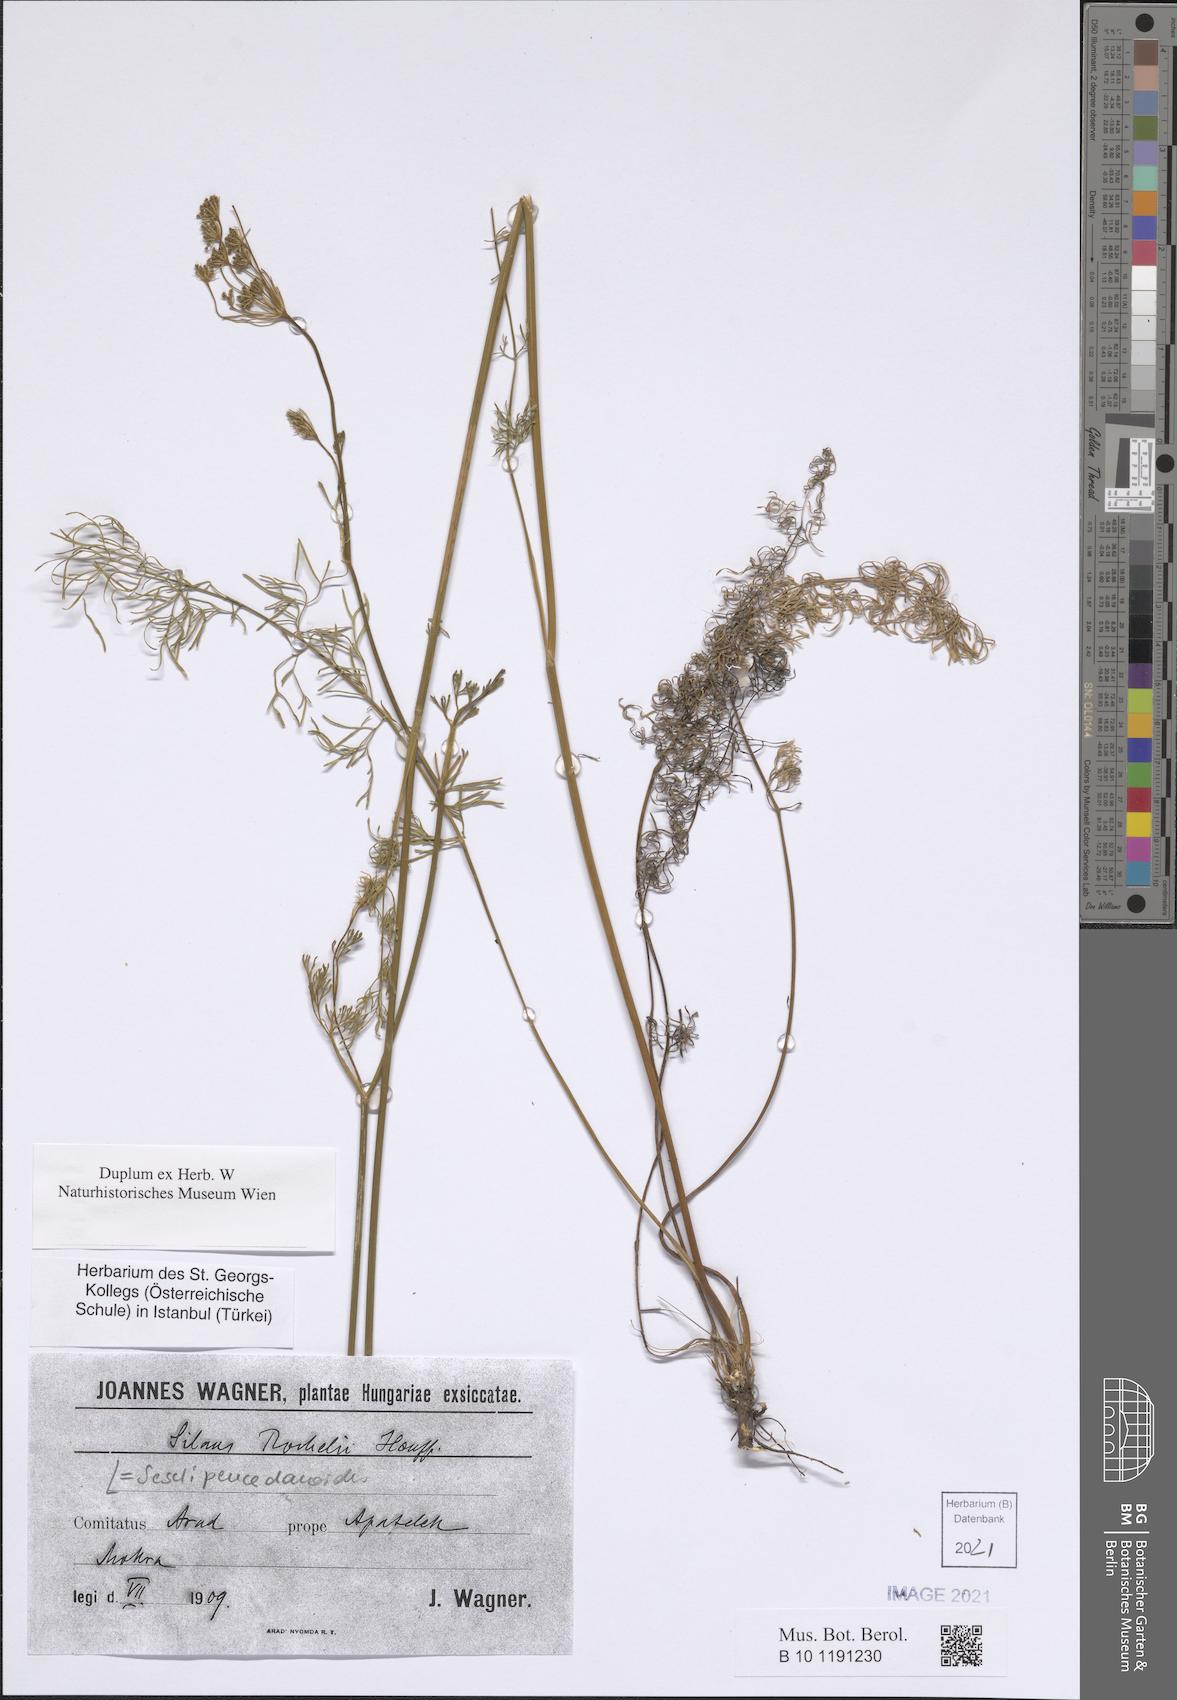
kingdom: Plantae
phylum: Tracheophyta
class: Magnoliopsida
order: Apiales
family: Apiaceae
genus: Gasparinia
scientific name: Gasparinia peucedanoides
